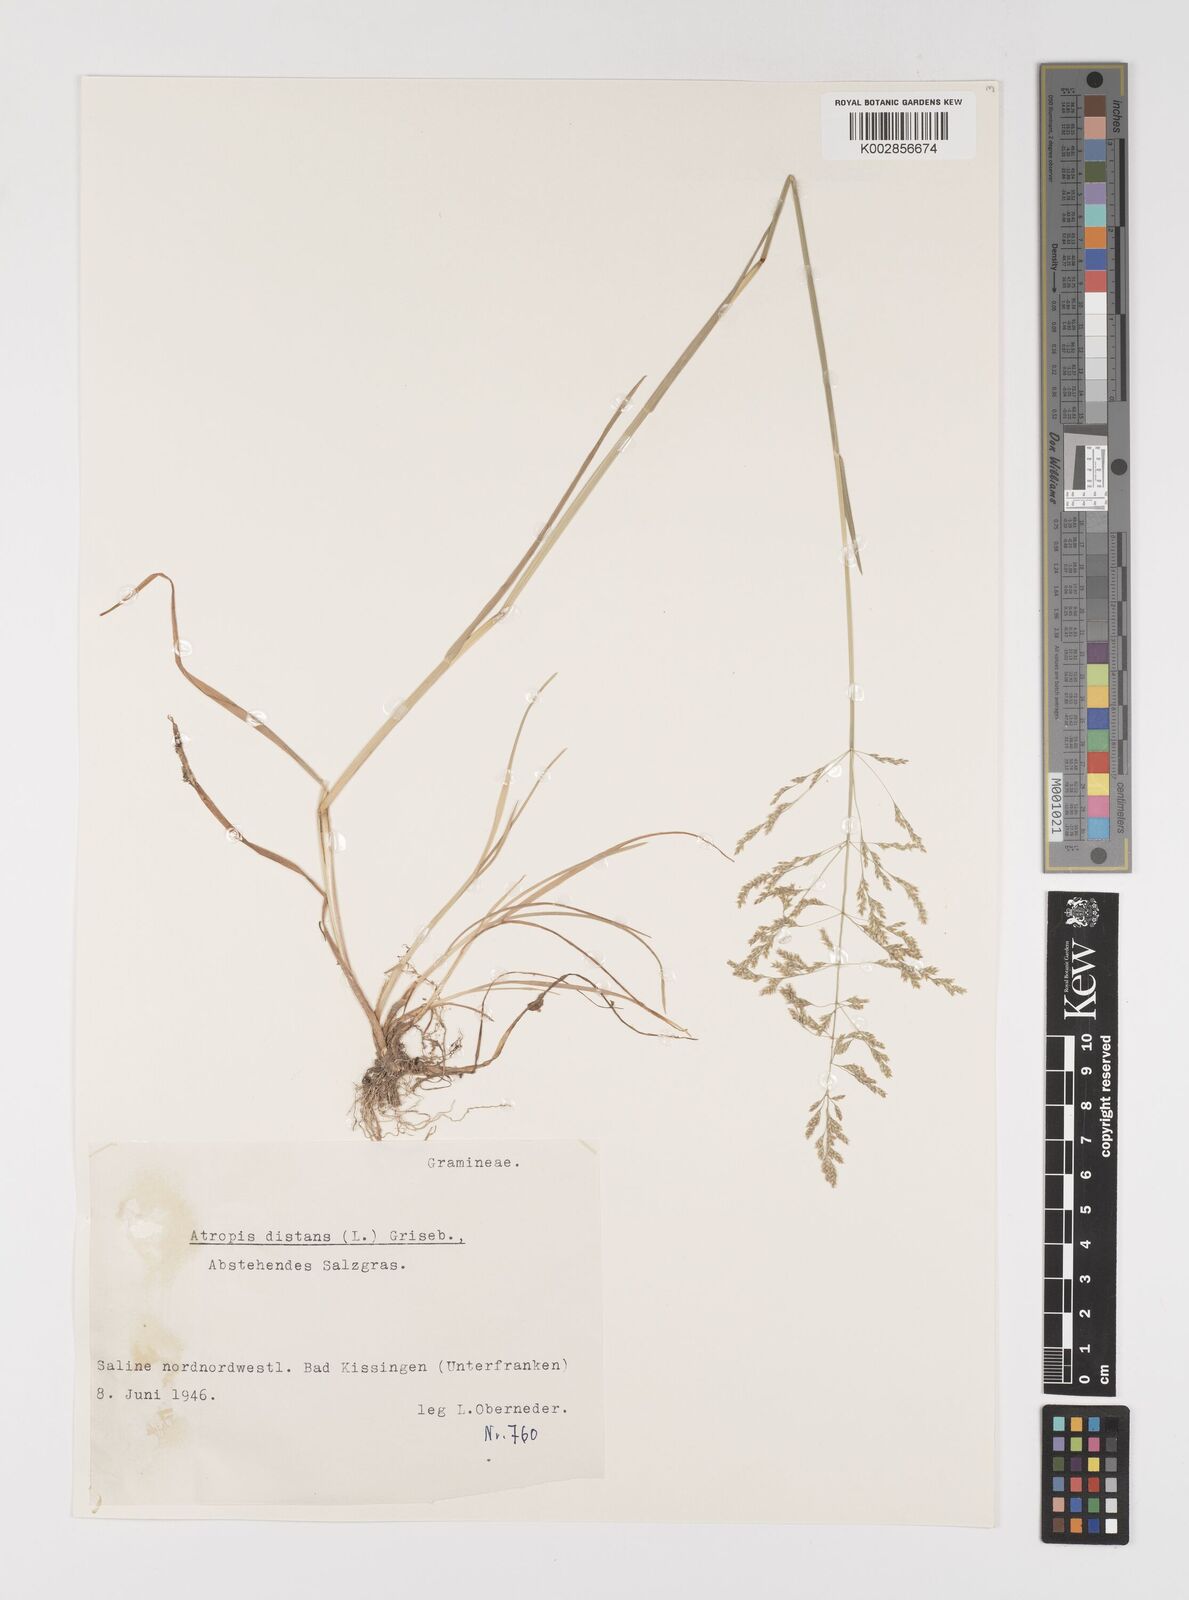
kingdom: Plantae
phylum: Tracheophyta
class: Liliopsida
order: Poales
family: Poaceae
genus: Puccinellia
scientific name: Puccinellia
